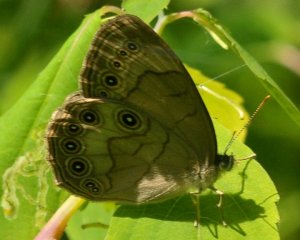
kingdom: Animalia
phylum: Arthropoda
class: Insecta
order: Lepidoptera
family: Nymphalidae
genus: Lethe
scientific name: Lethe eurydice
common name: Appalachian Eyed Brown
